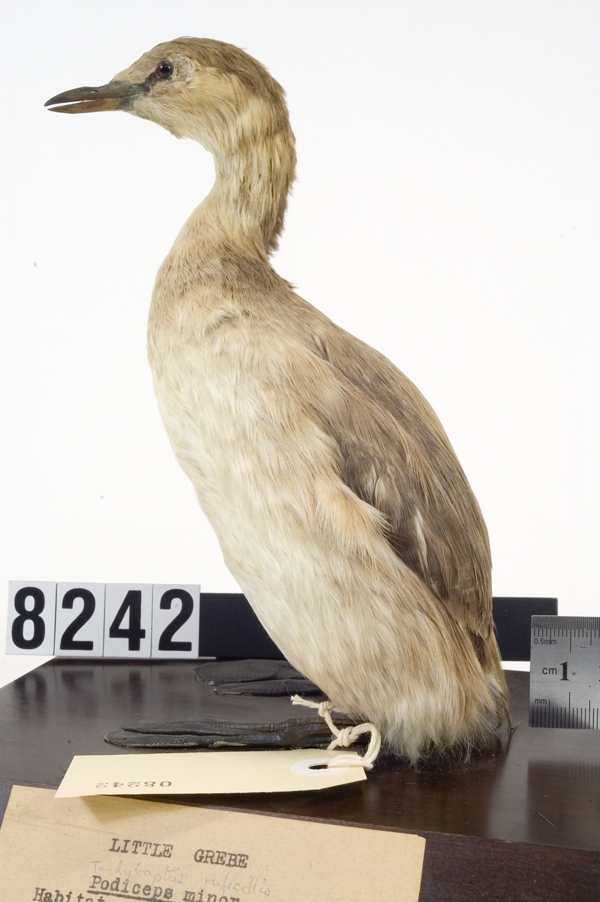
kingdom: Animalia
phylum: Chordata
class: Aves
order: Podicipediformes
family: Podicipedidae
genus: Tachybaptus
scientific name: Tachybaptus ruficollis
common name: Little grebe
